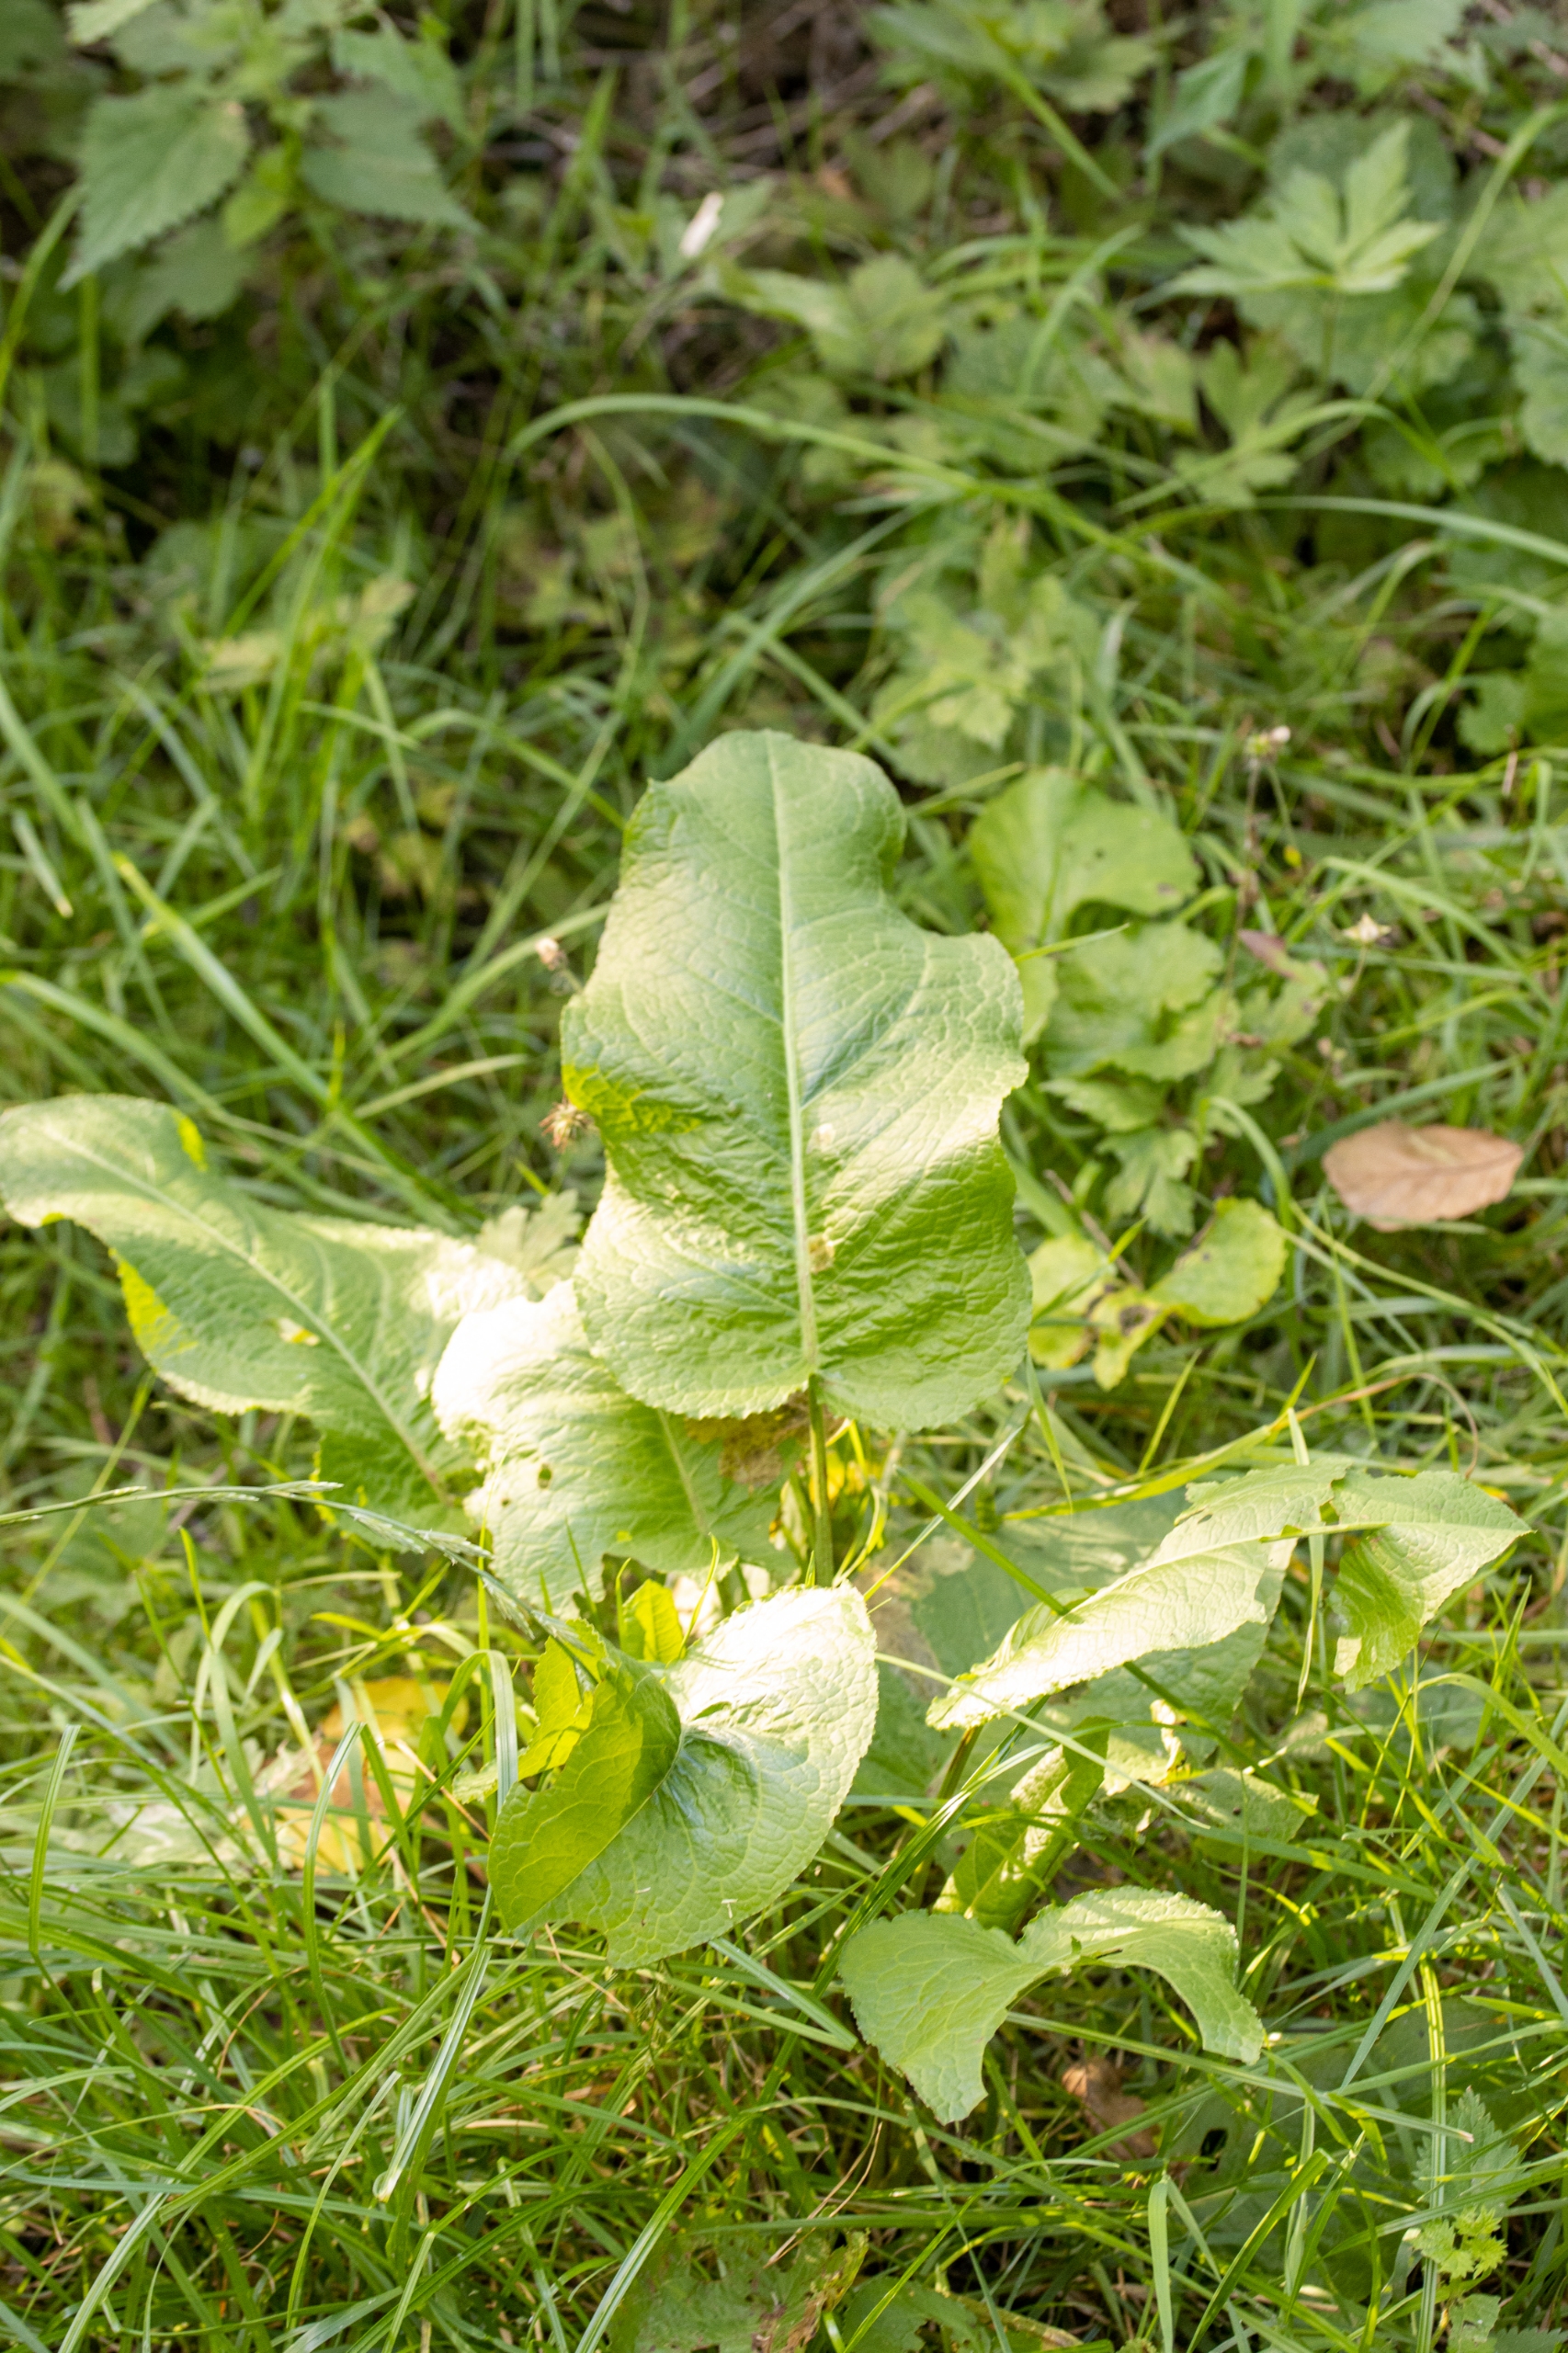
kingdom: Plantae
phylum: Tracheophyta
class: Magnoliopsida
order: Caryophyllales
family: Polygonaceae
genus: Rumex
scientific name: Rumex obtusifolius
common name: Butbladet skræppe
